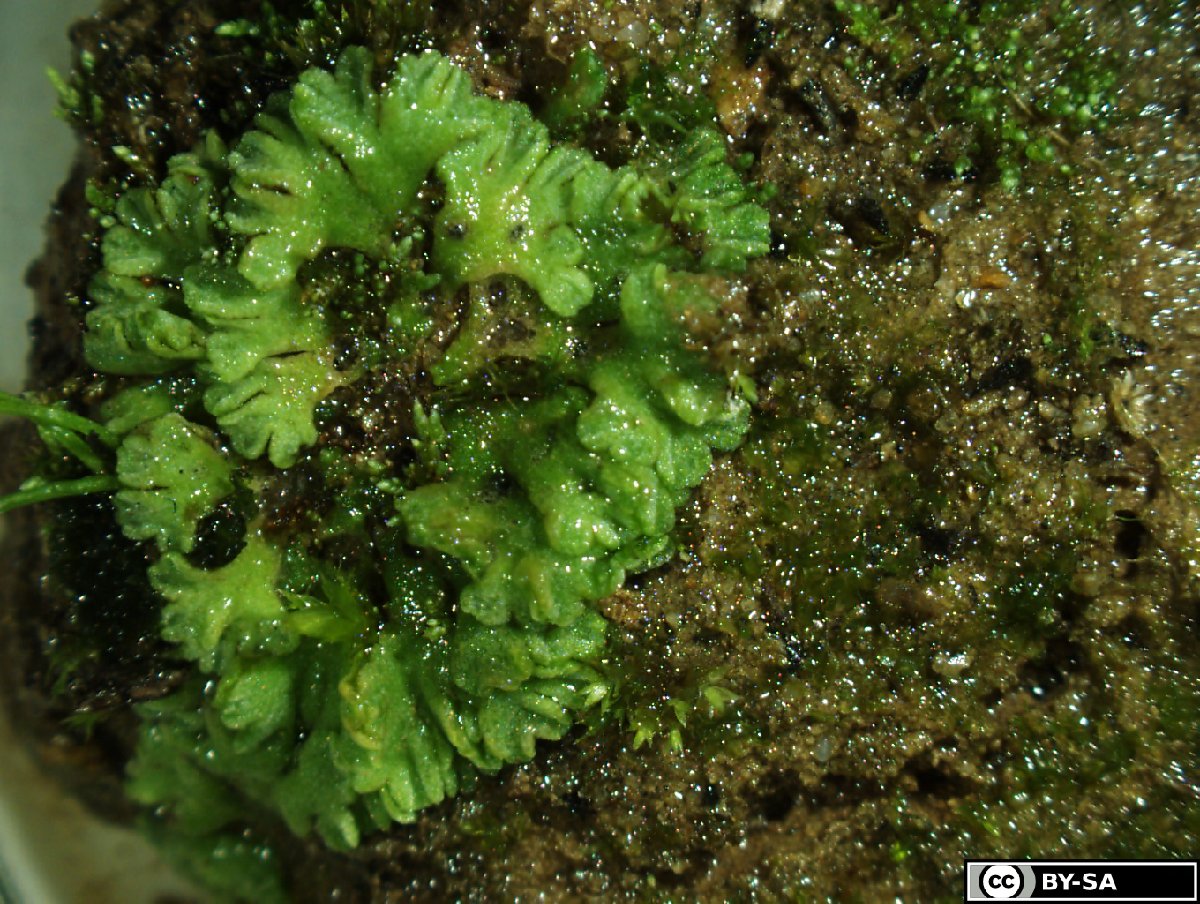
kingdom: Plantae
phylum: Marchantiophyta
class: Marchantiopsida
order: Marchantiales
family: Ricciaceae
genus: Riccia
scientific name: Riccia glauca
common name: Glaucous crystalwort
